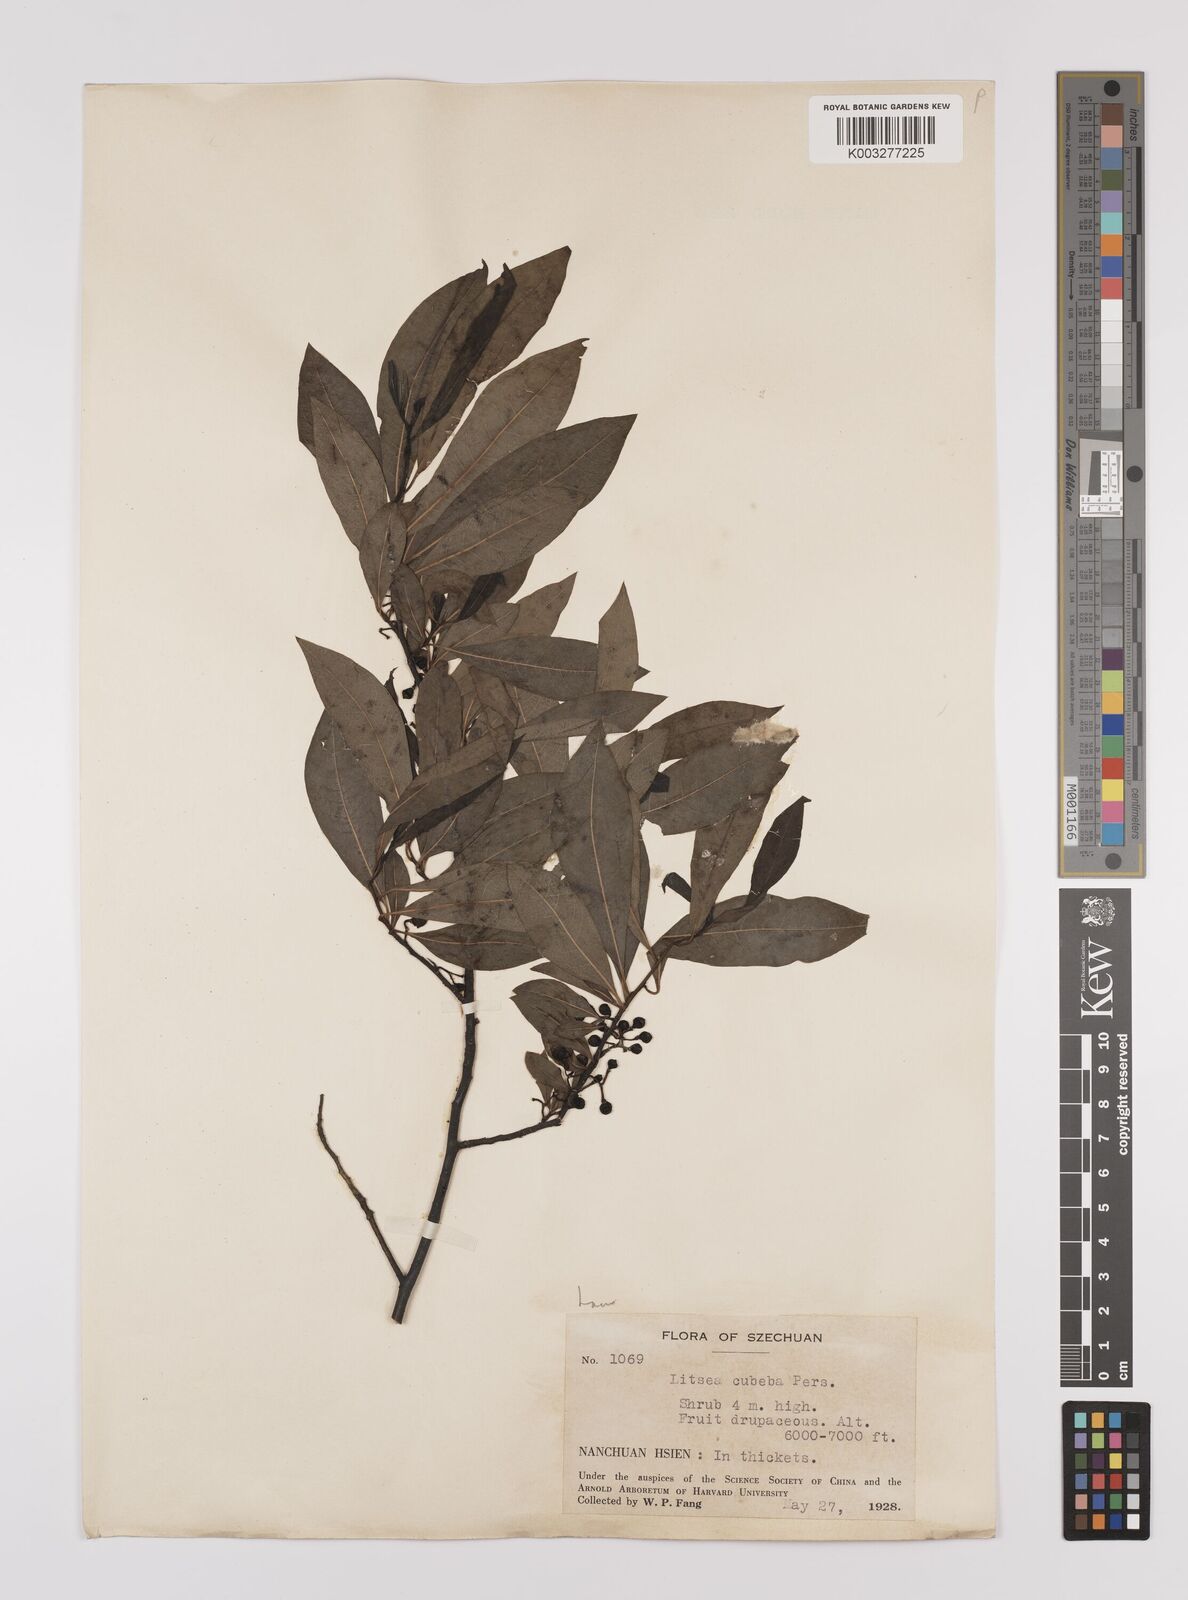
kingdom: Plantae
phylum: Tracheophyta
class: Magnoliopsida
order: Laurales
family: Lauraceae
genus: Litsea
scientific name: Litsea cubeba
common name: Mountain-pepper
